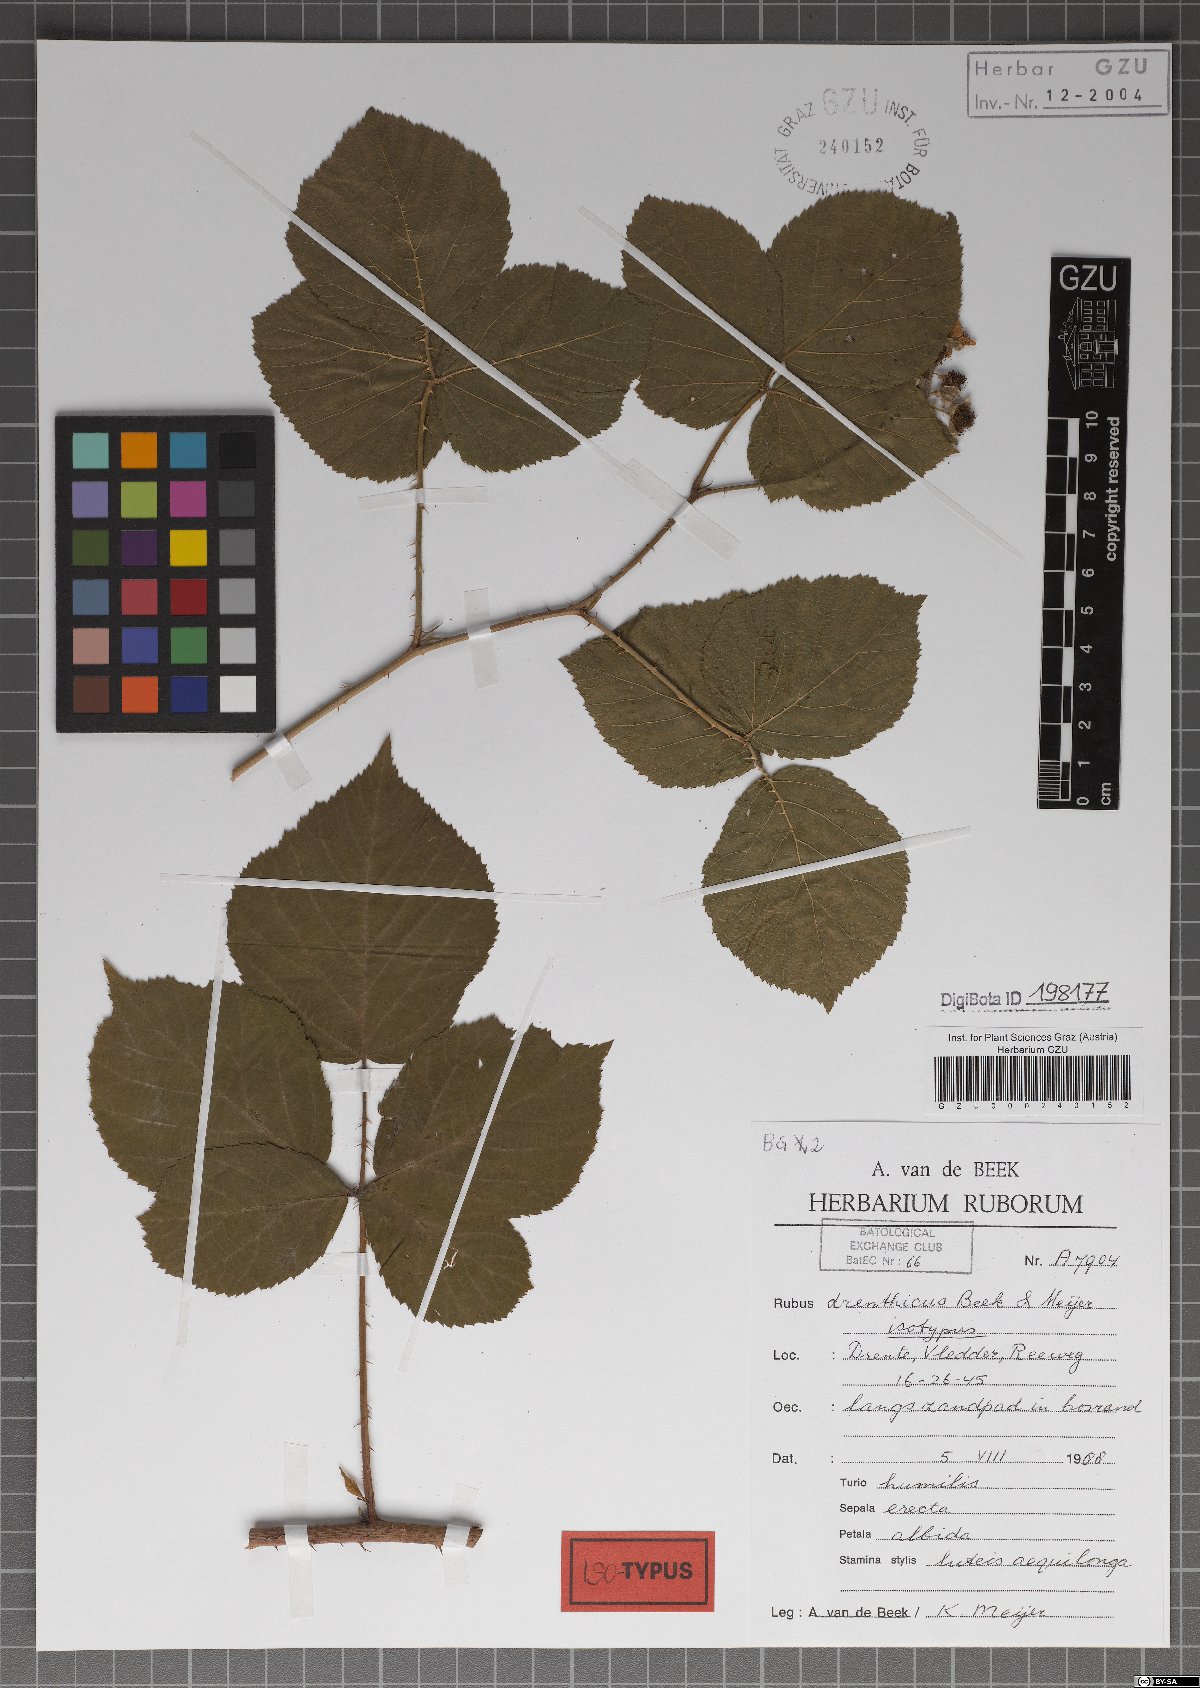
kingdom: Plantae
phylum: Tracheophyta
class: Magnoliopsida
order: Rosales
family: Rosaceae
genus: Rubus
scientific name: Rubus drenthicus
